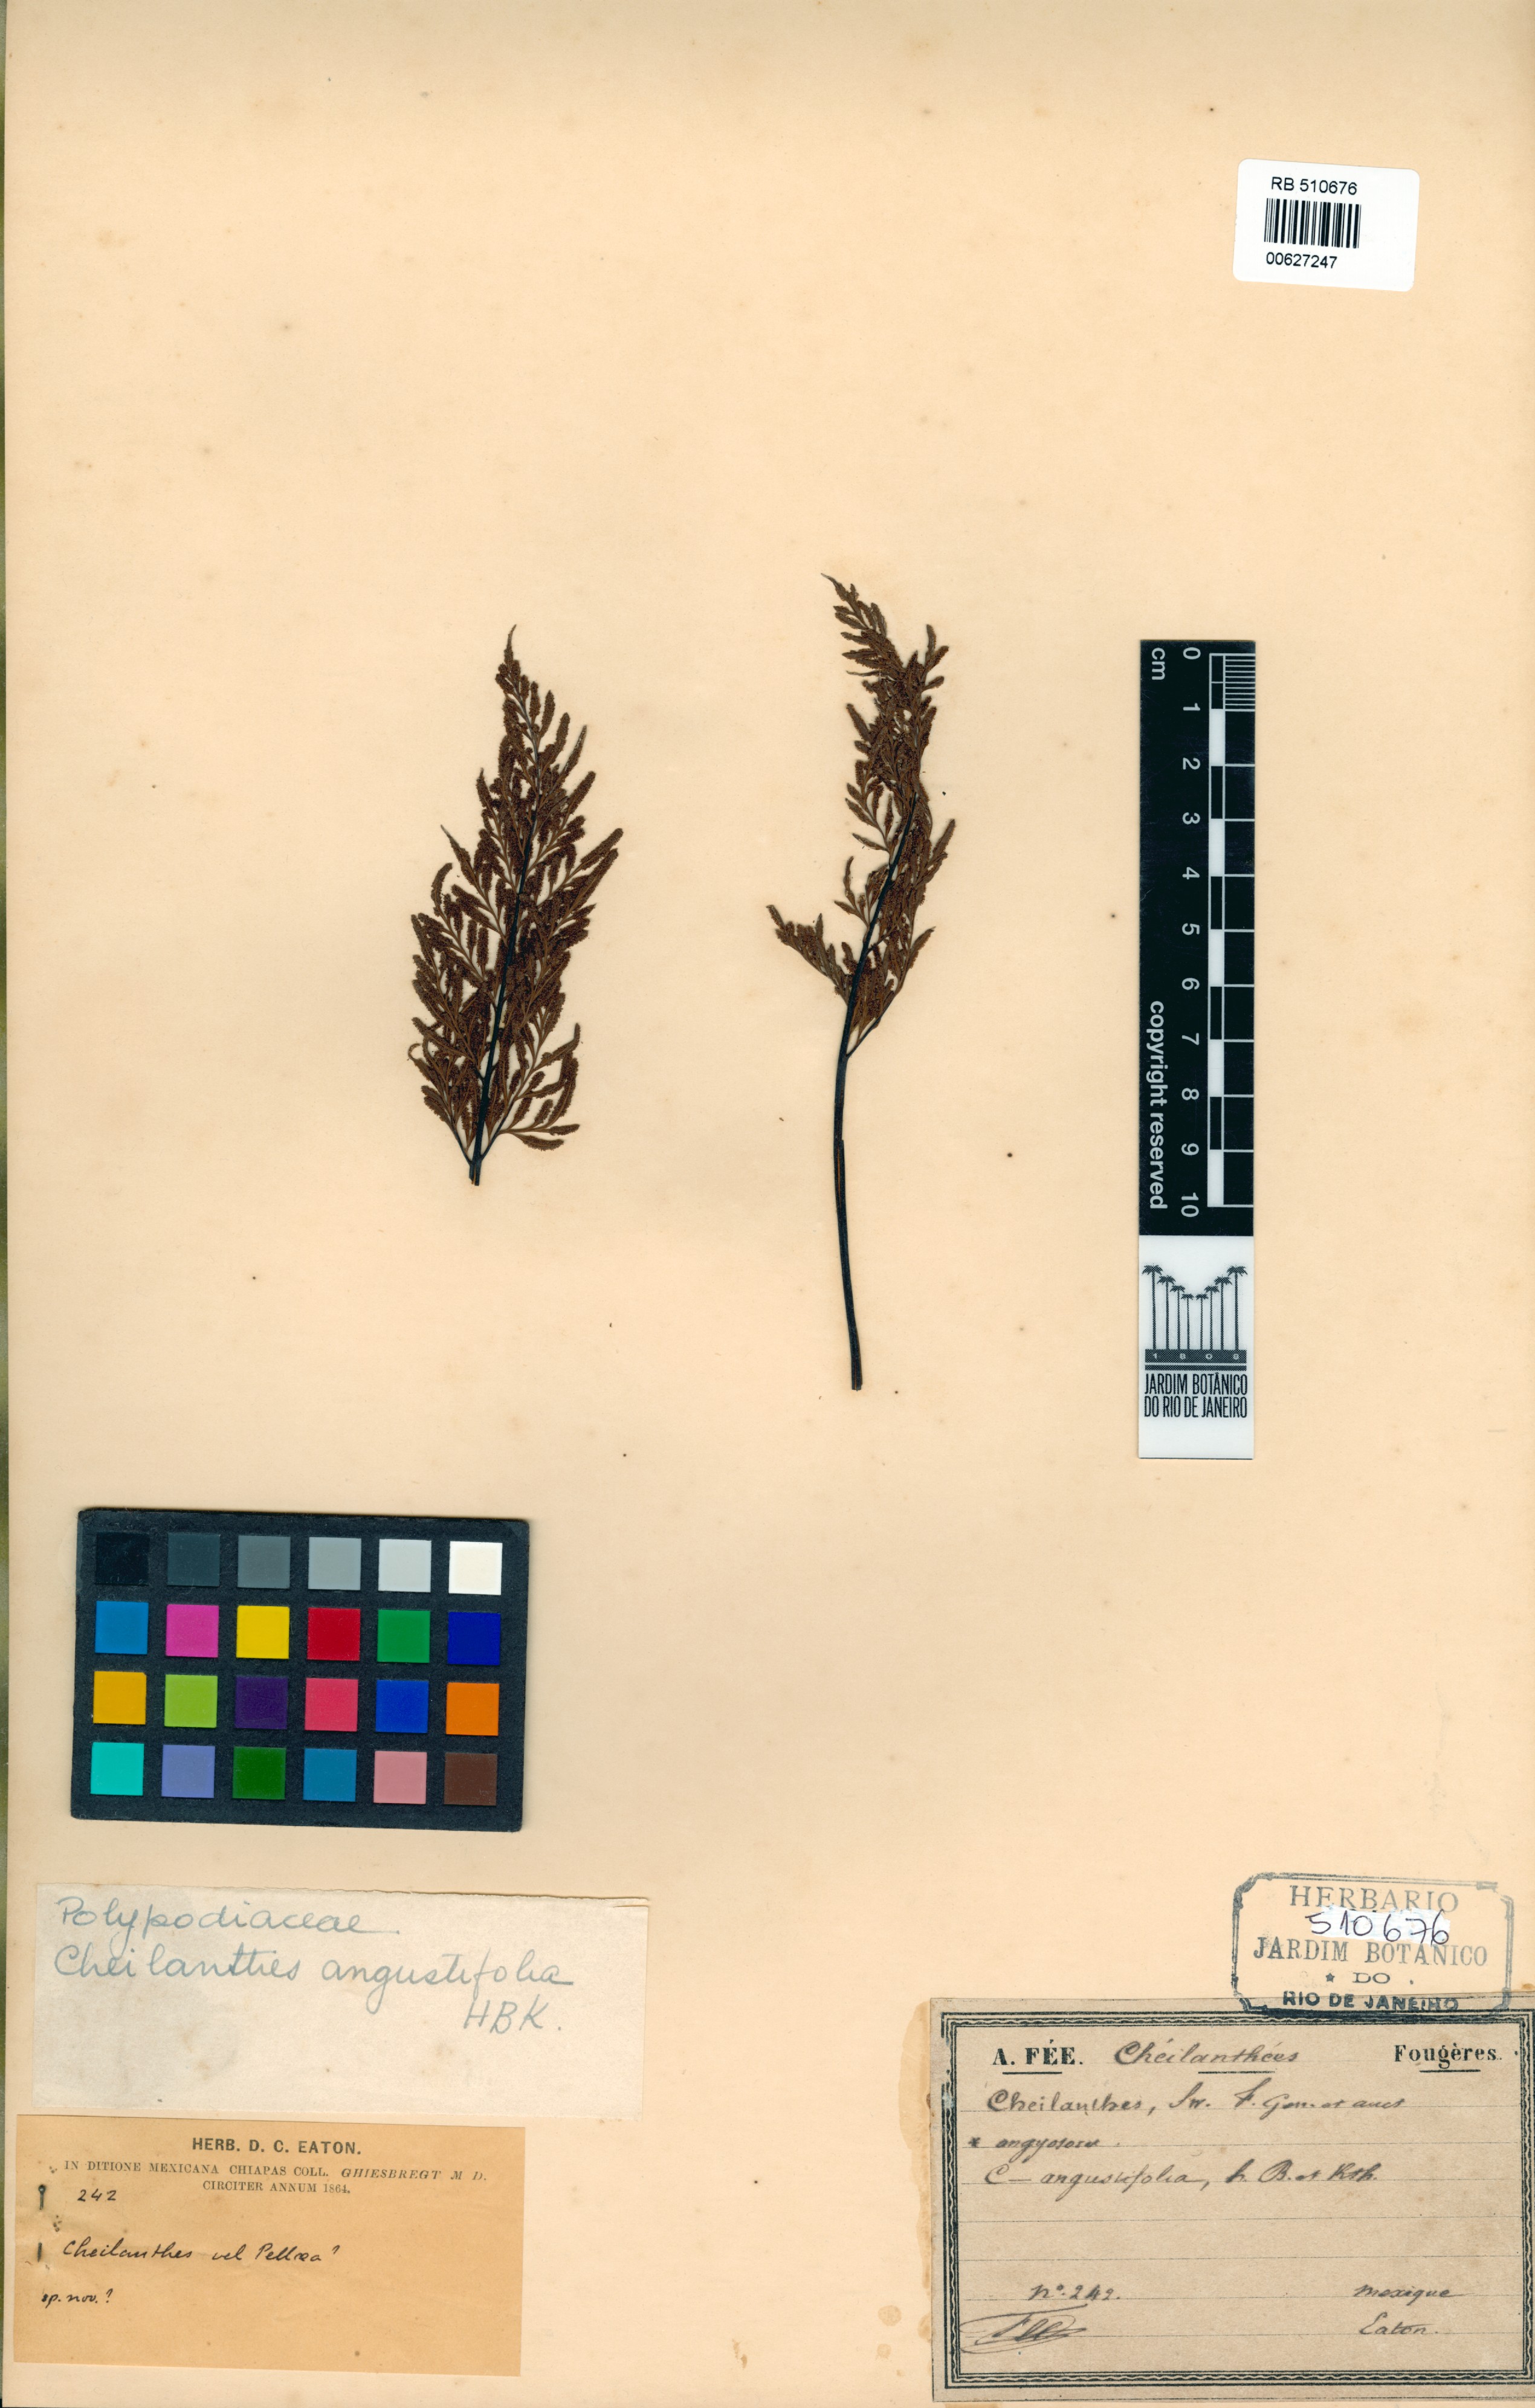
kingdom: Plantae
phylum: Tracheophyta
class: Polypodiopsida
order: Polypodiales
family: Pteridaceae
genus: Gaga
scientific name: Gaga angustifolia
